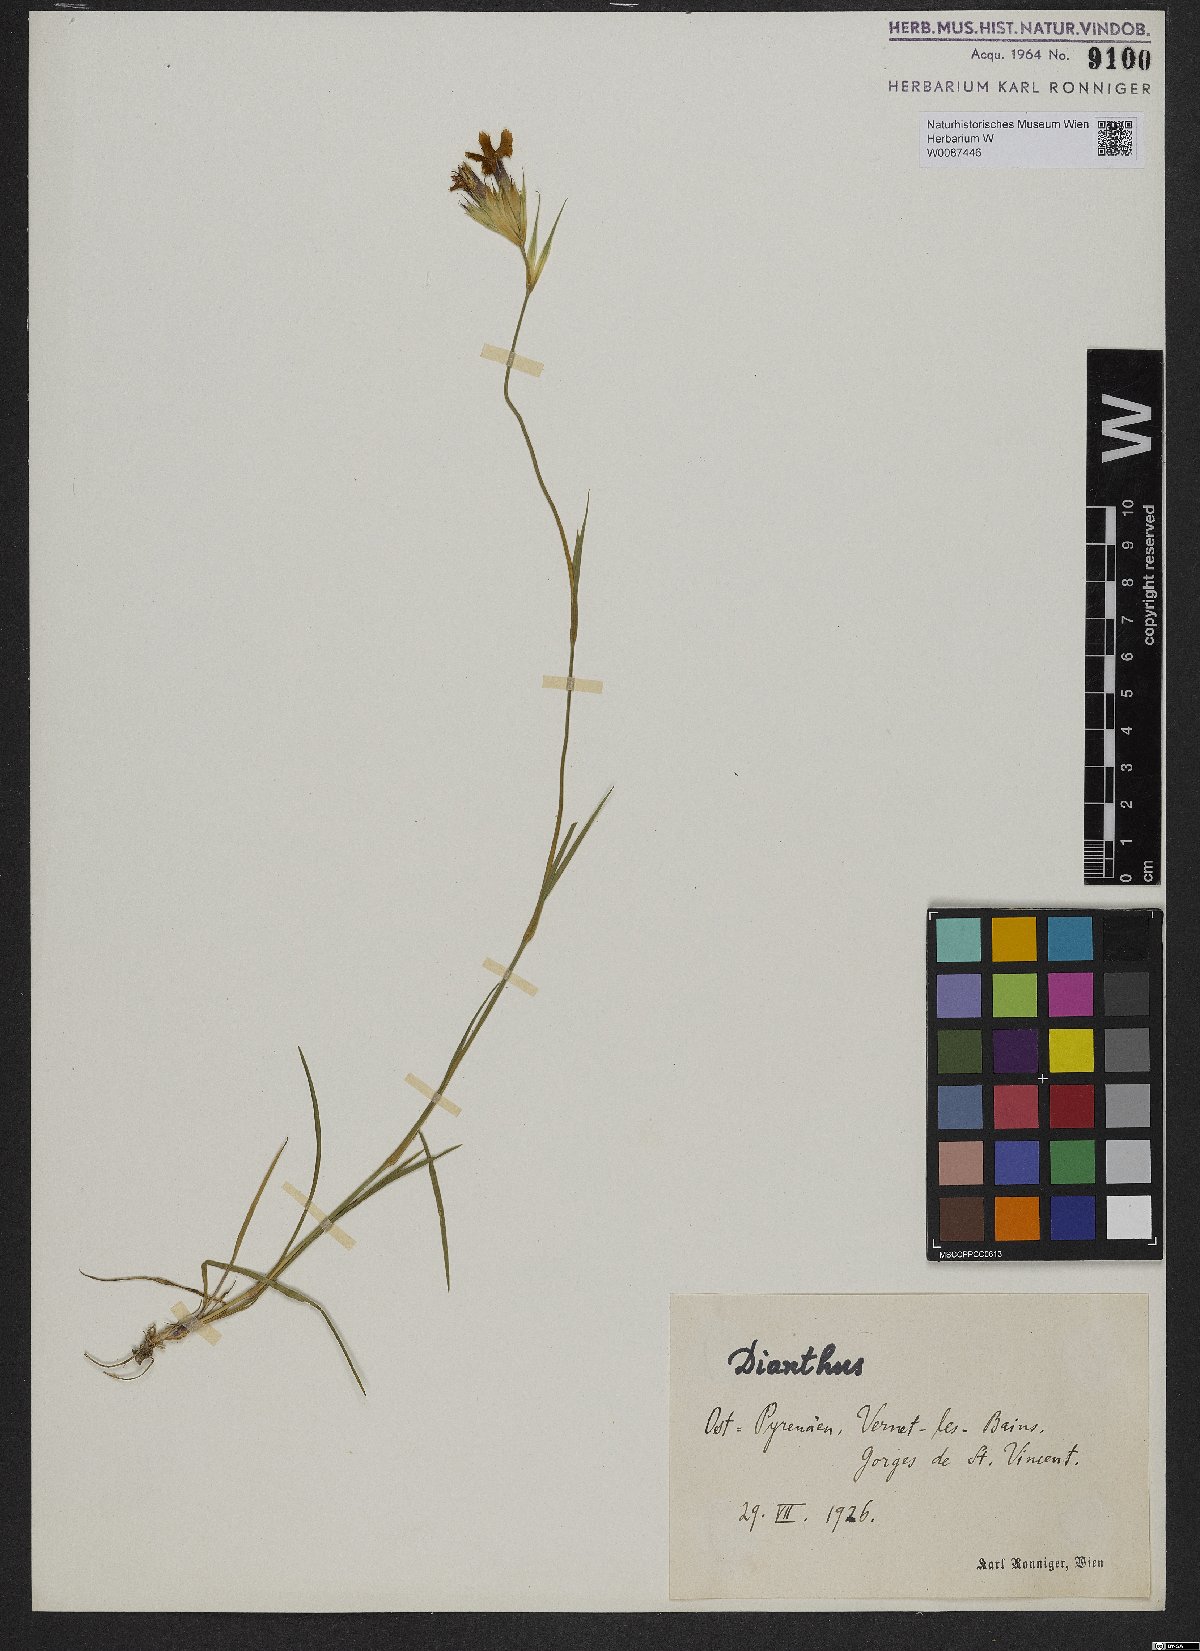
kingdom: Plantae
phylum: Tracheophyta
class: Magnoliopsida
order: Caryophyllales
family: Caryophyllaceae
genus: Dianthus
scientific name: Dianthus
